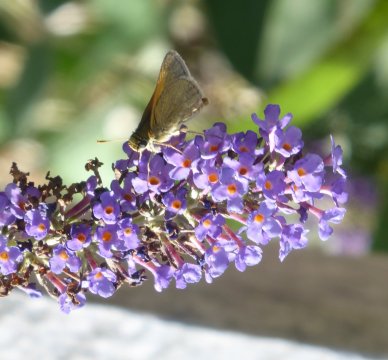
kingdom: Animalia
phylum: Arthropoda
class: Insecta
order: Lepidoptera
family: Hesperiidae
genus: Polites
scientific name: Polites themistocles
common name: Tawny-edged Skipper
